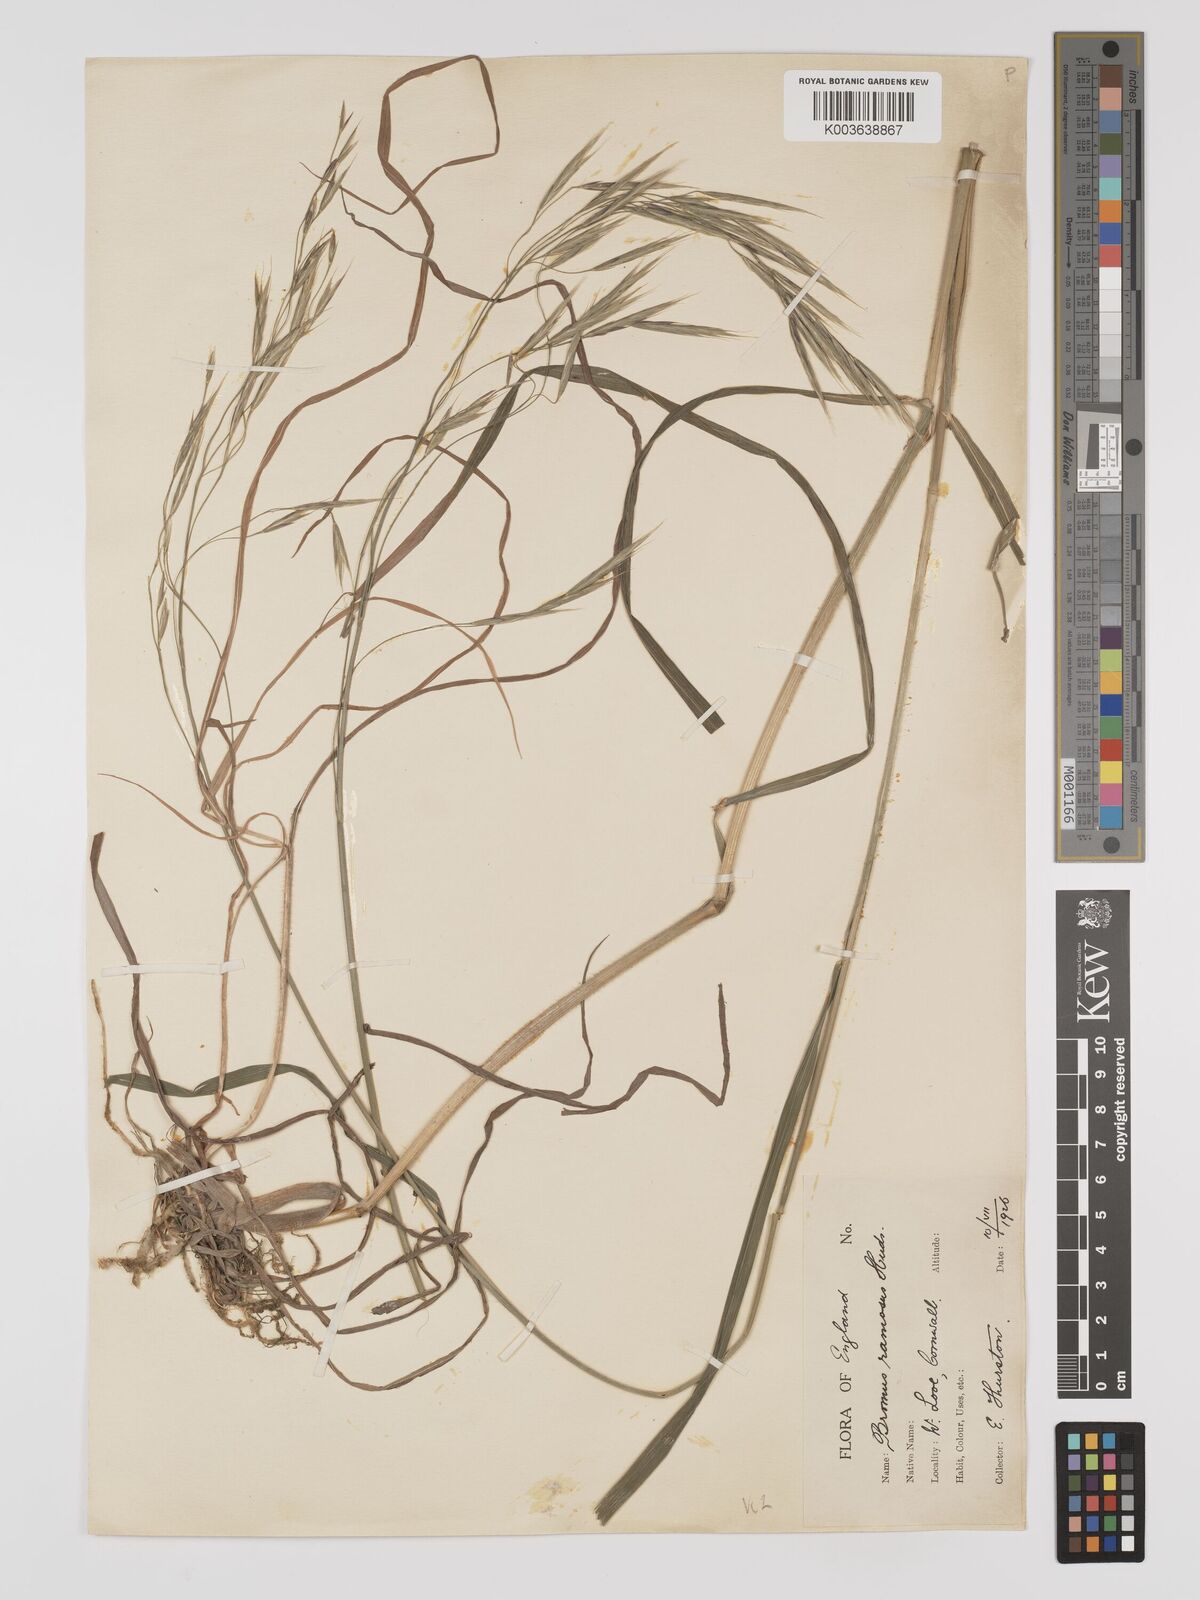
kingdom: Plantae
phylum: Tracheophyta
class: Liliopsida
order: Poales
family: Poaceae
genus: Brachypodium
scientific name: Brachypodium retusum
